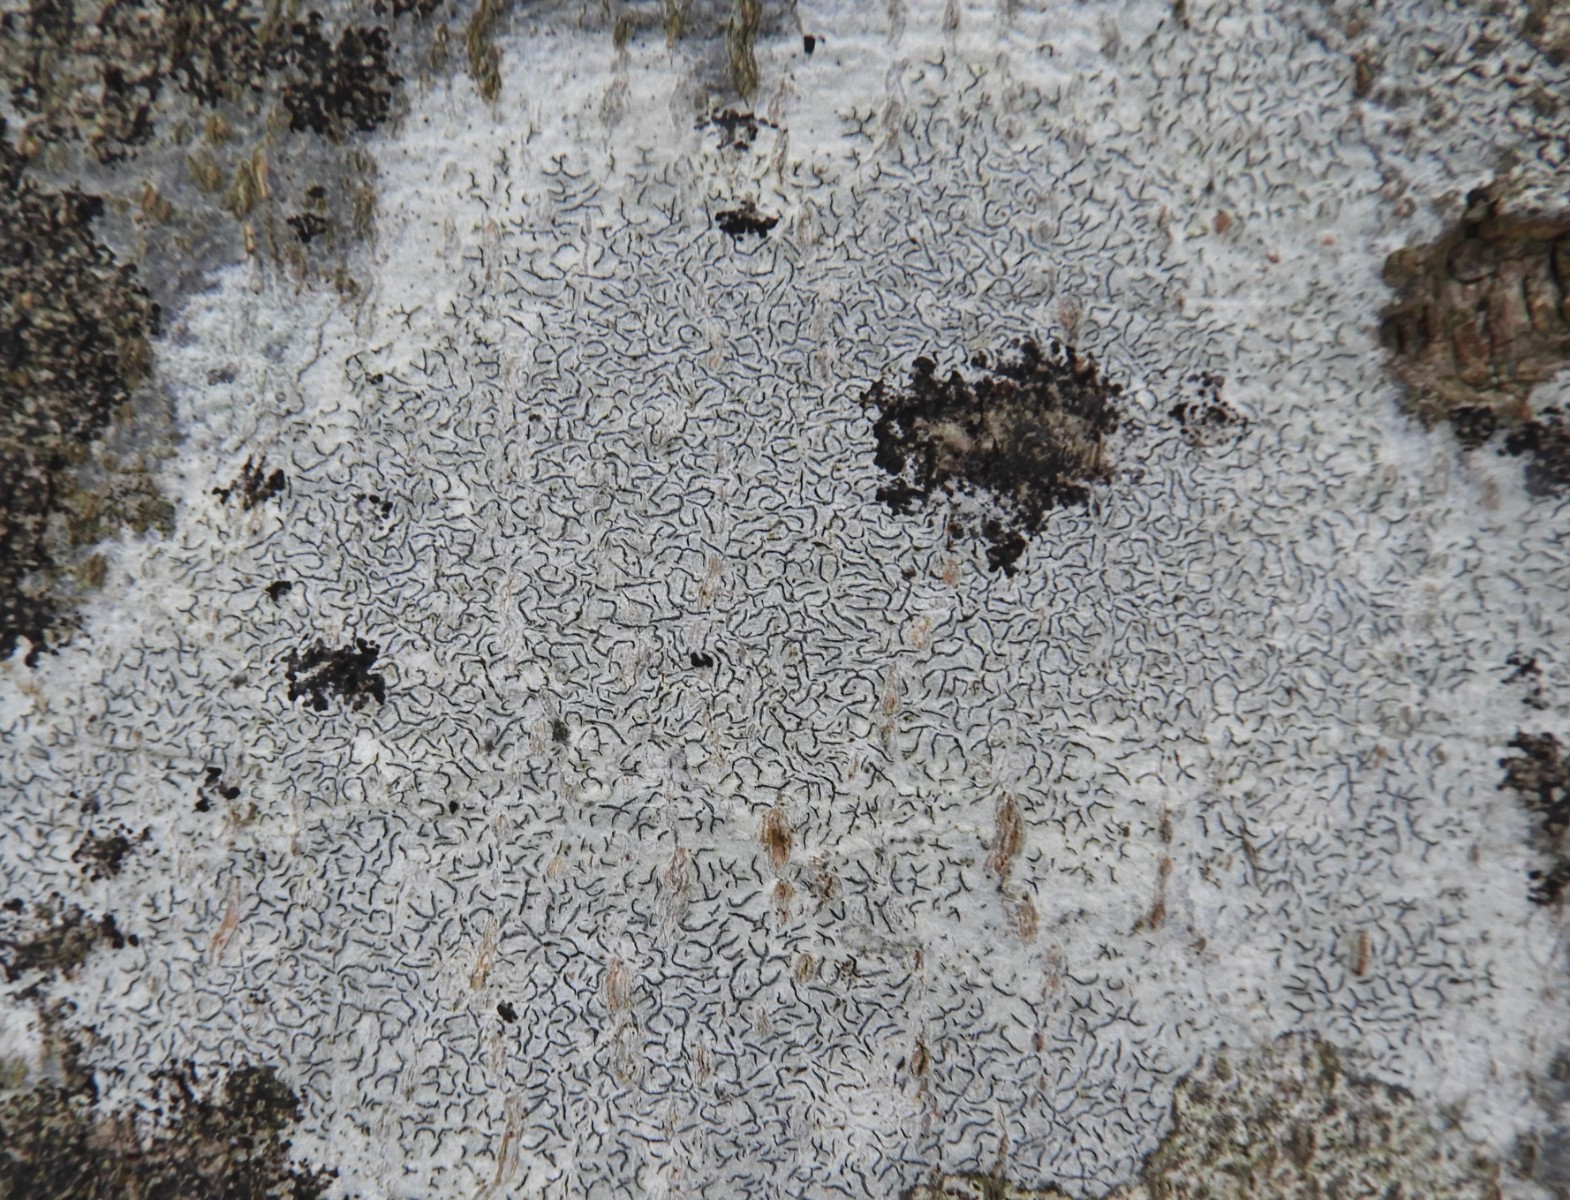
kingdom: Fungi
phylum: Ascomycota
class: Lecanoromycetes
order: Ostropales
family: Graphidaceae
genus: Graphis
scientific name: Graphis scripta
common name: almindelig skriftlav
